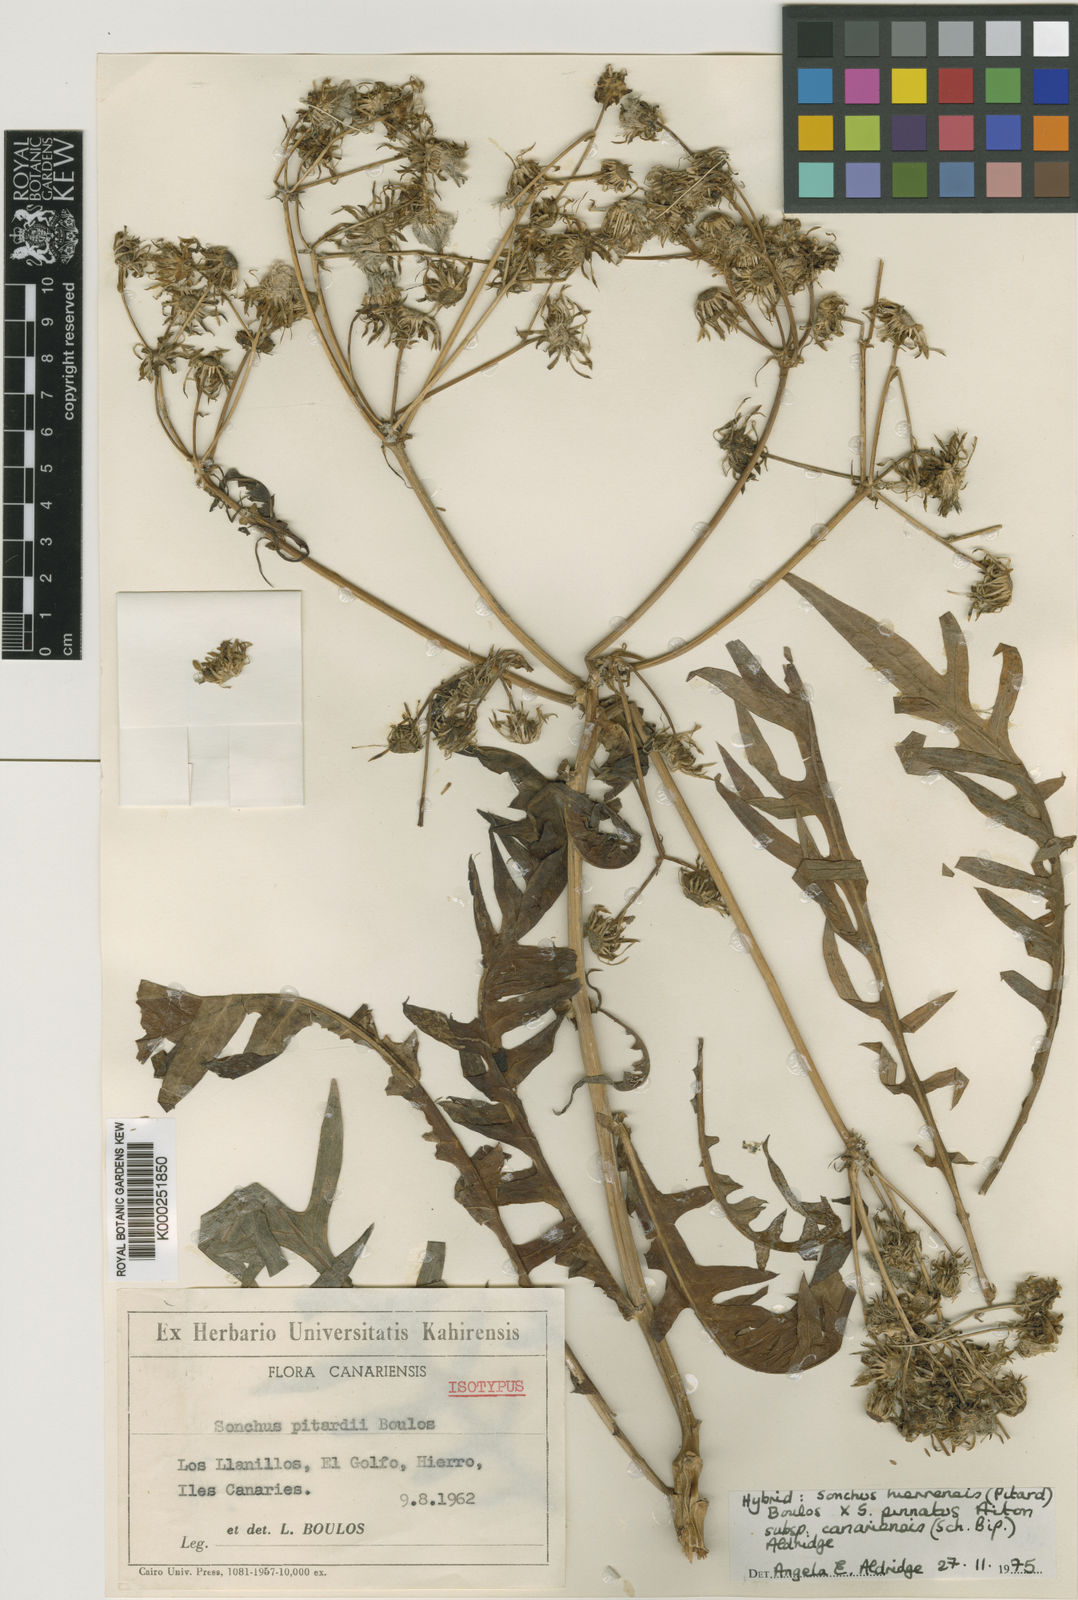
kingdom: Plantae
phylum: Tracheophyta
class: Magnoliopsida
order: Asterales
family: Asteraceae
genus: Sonchus
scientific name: Sonchus hierrensis
